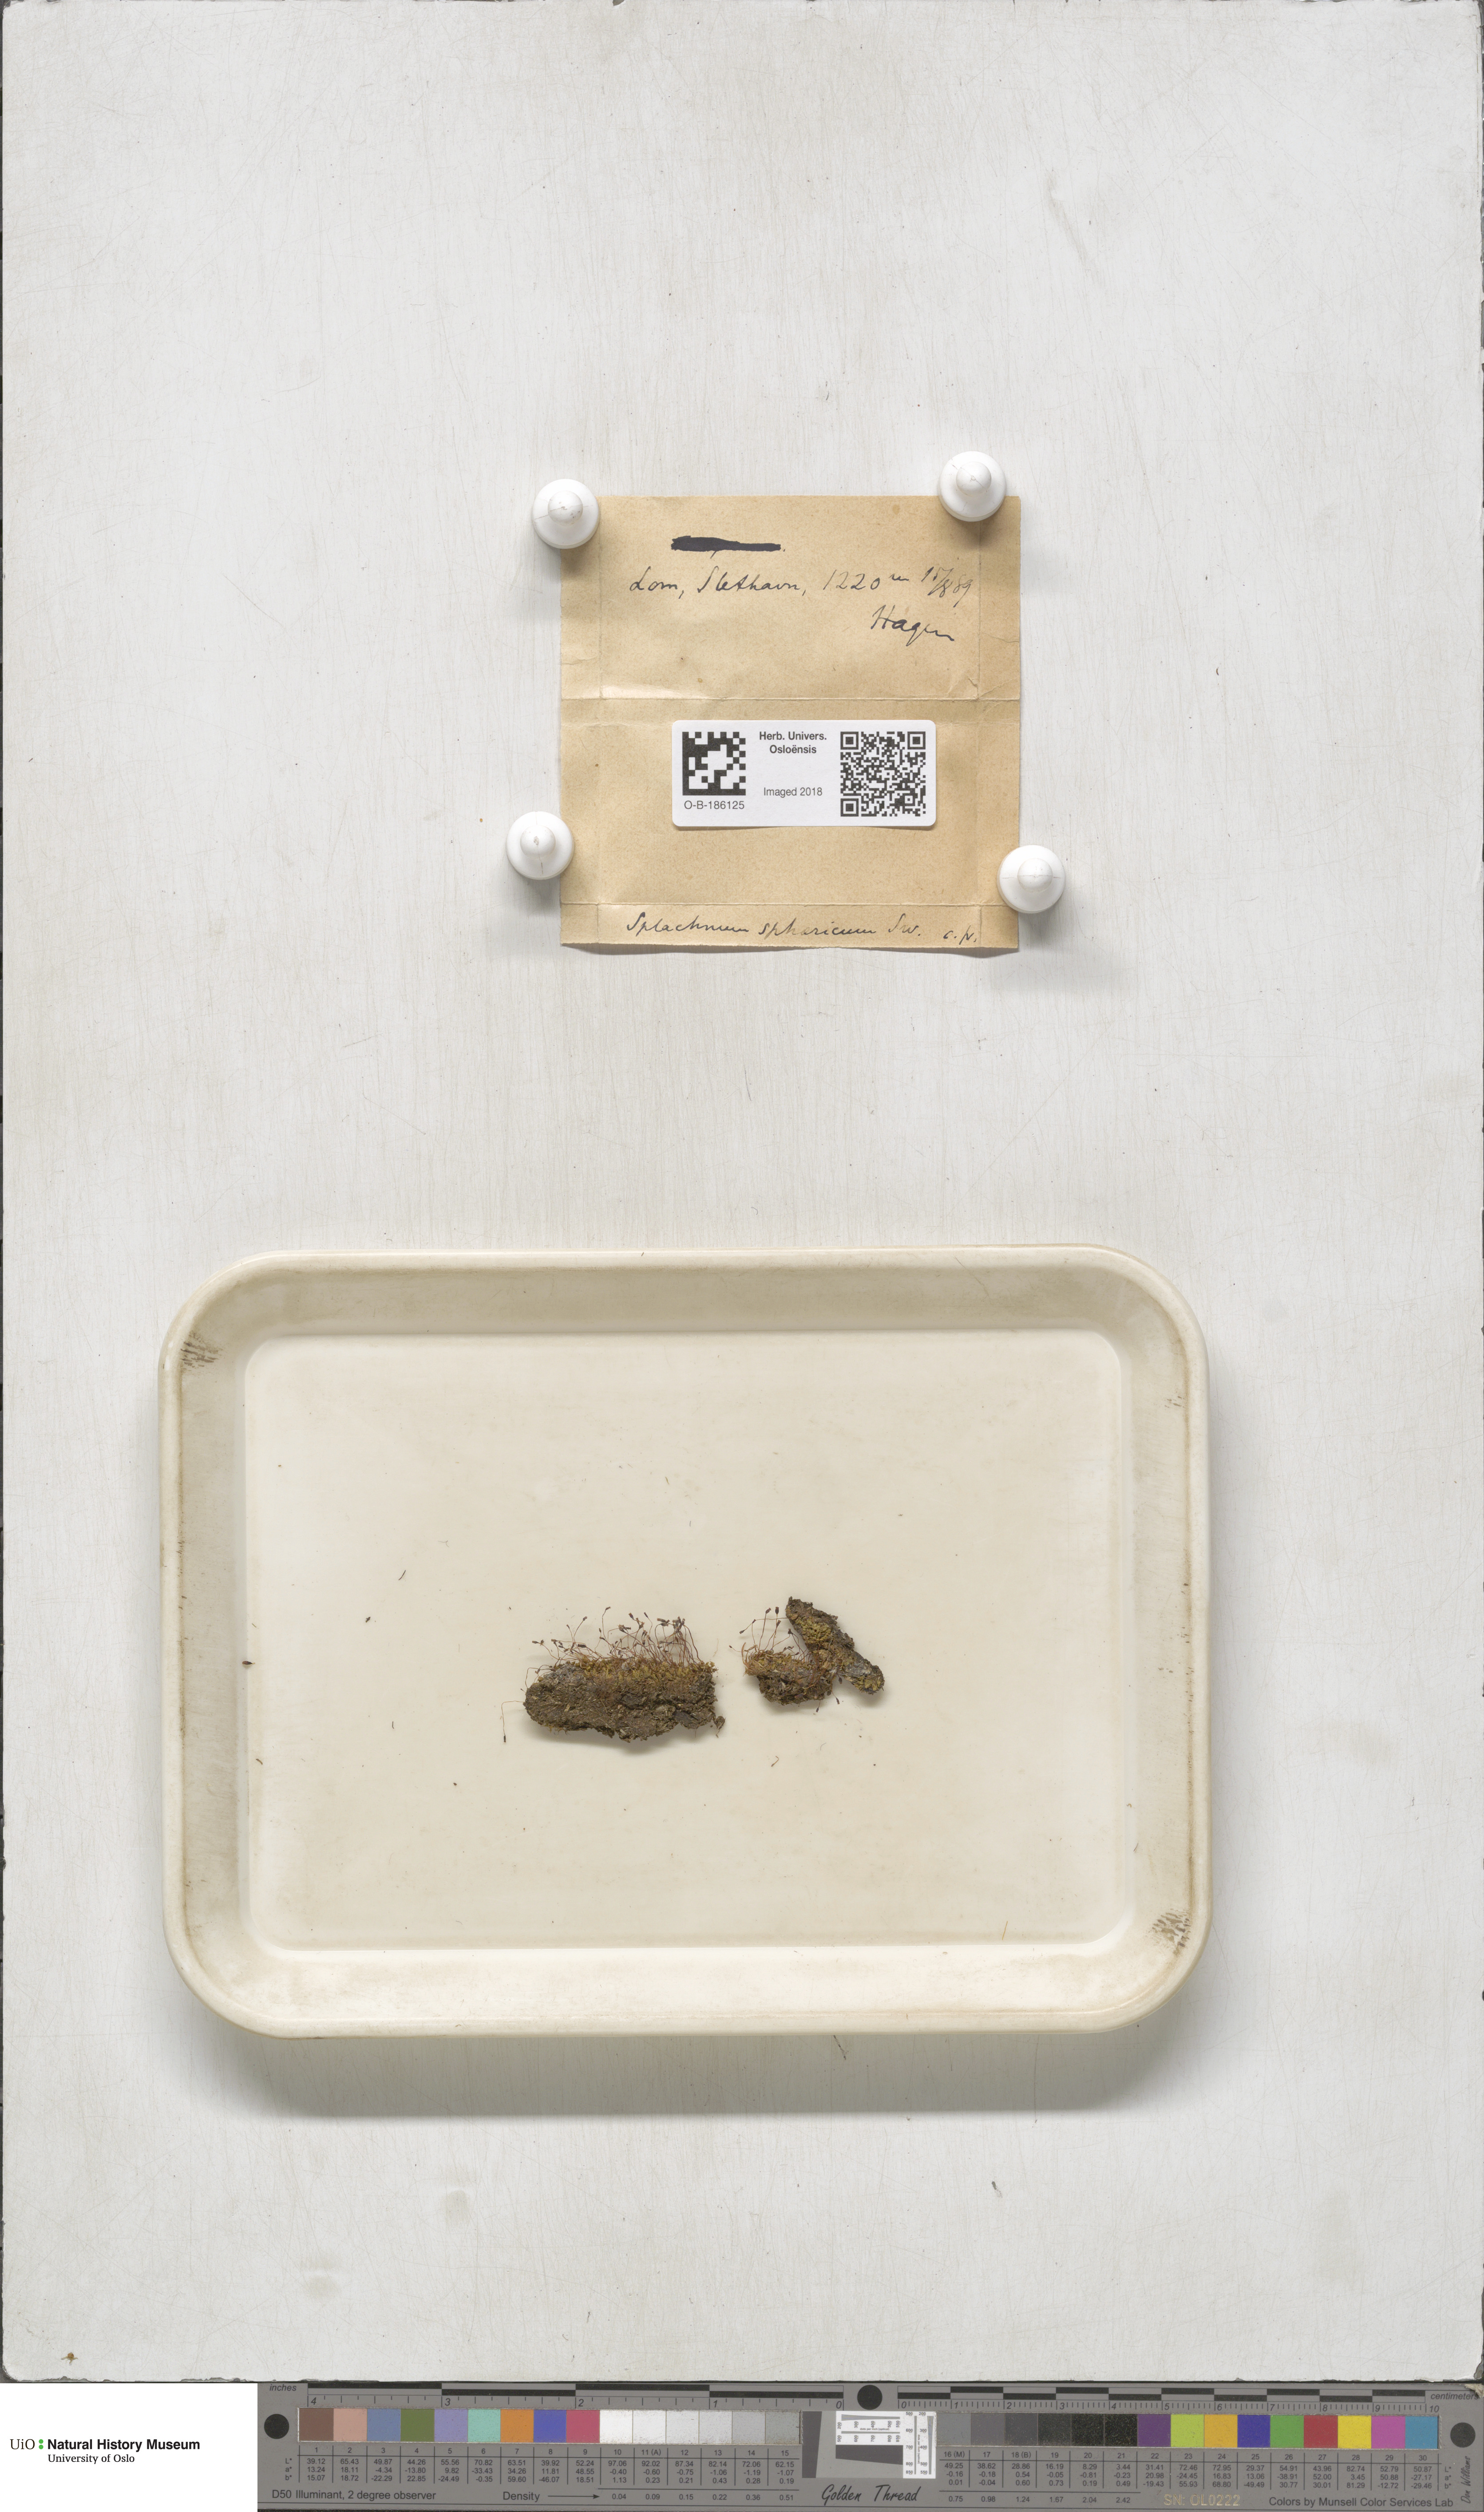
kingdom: Plantae
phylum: Bryophyta
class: Bryopsida
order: Splachnales
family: Splachnaceae
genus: Splachnum
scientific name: Splachnum sphaericum
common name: Round-fruited dung moss
